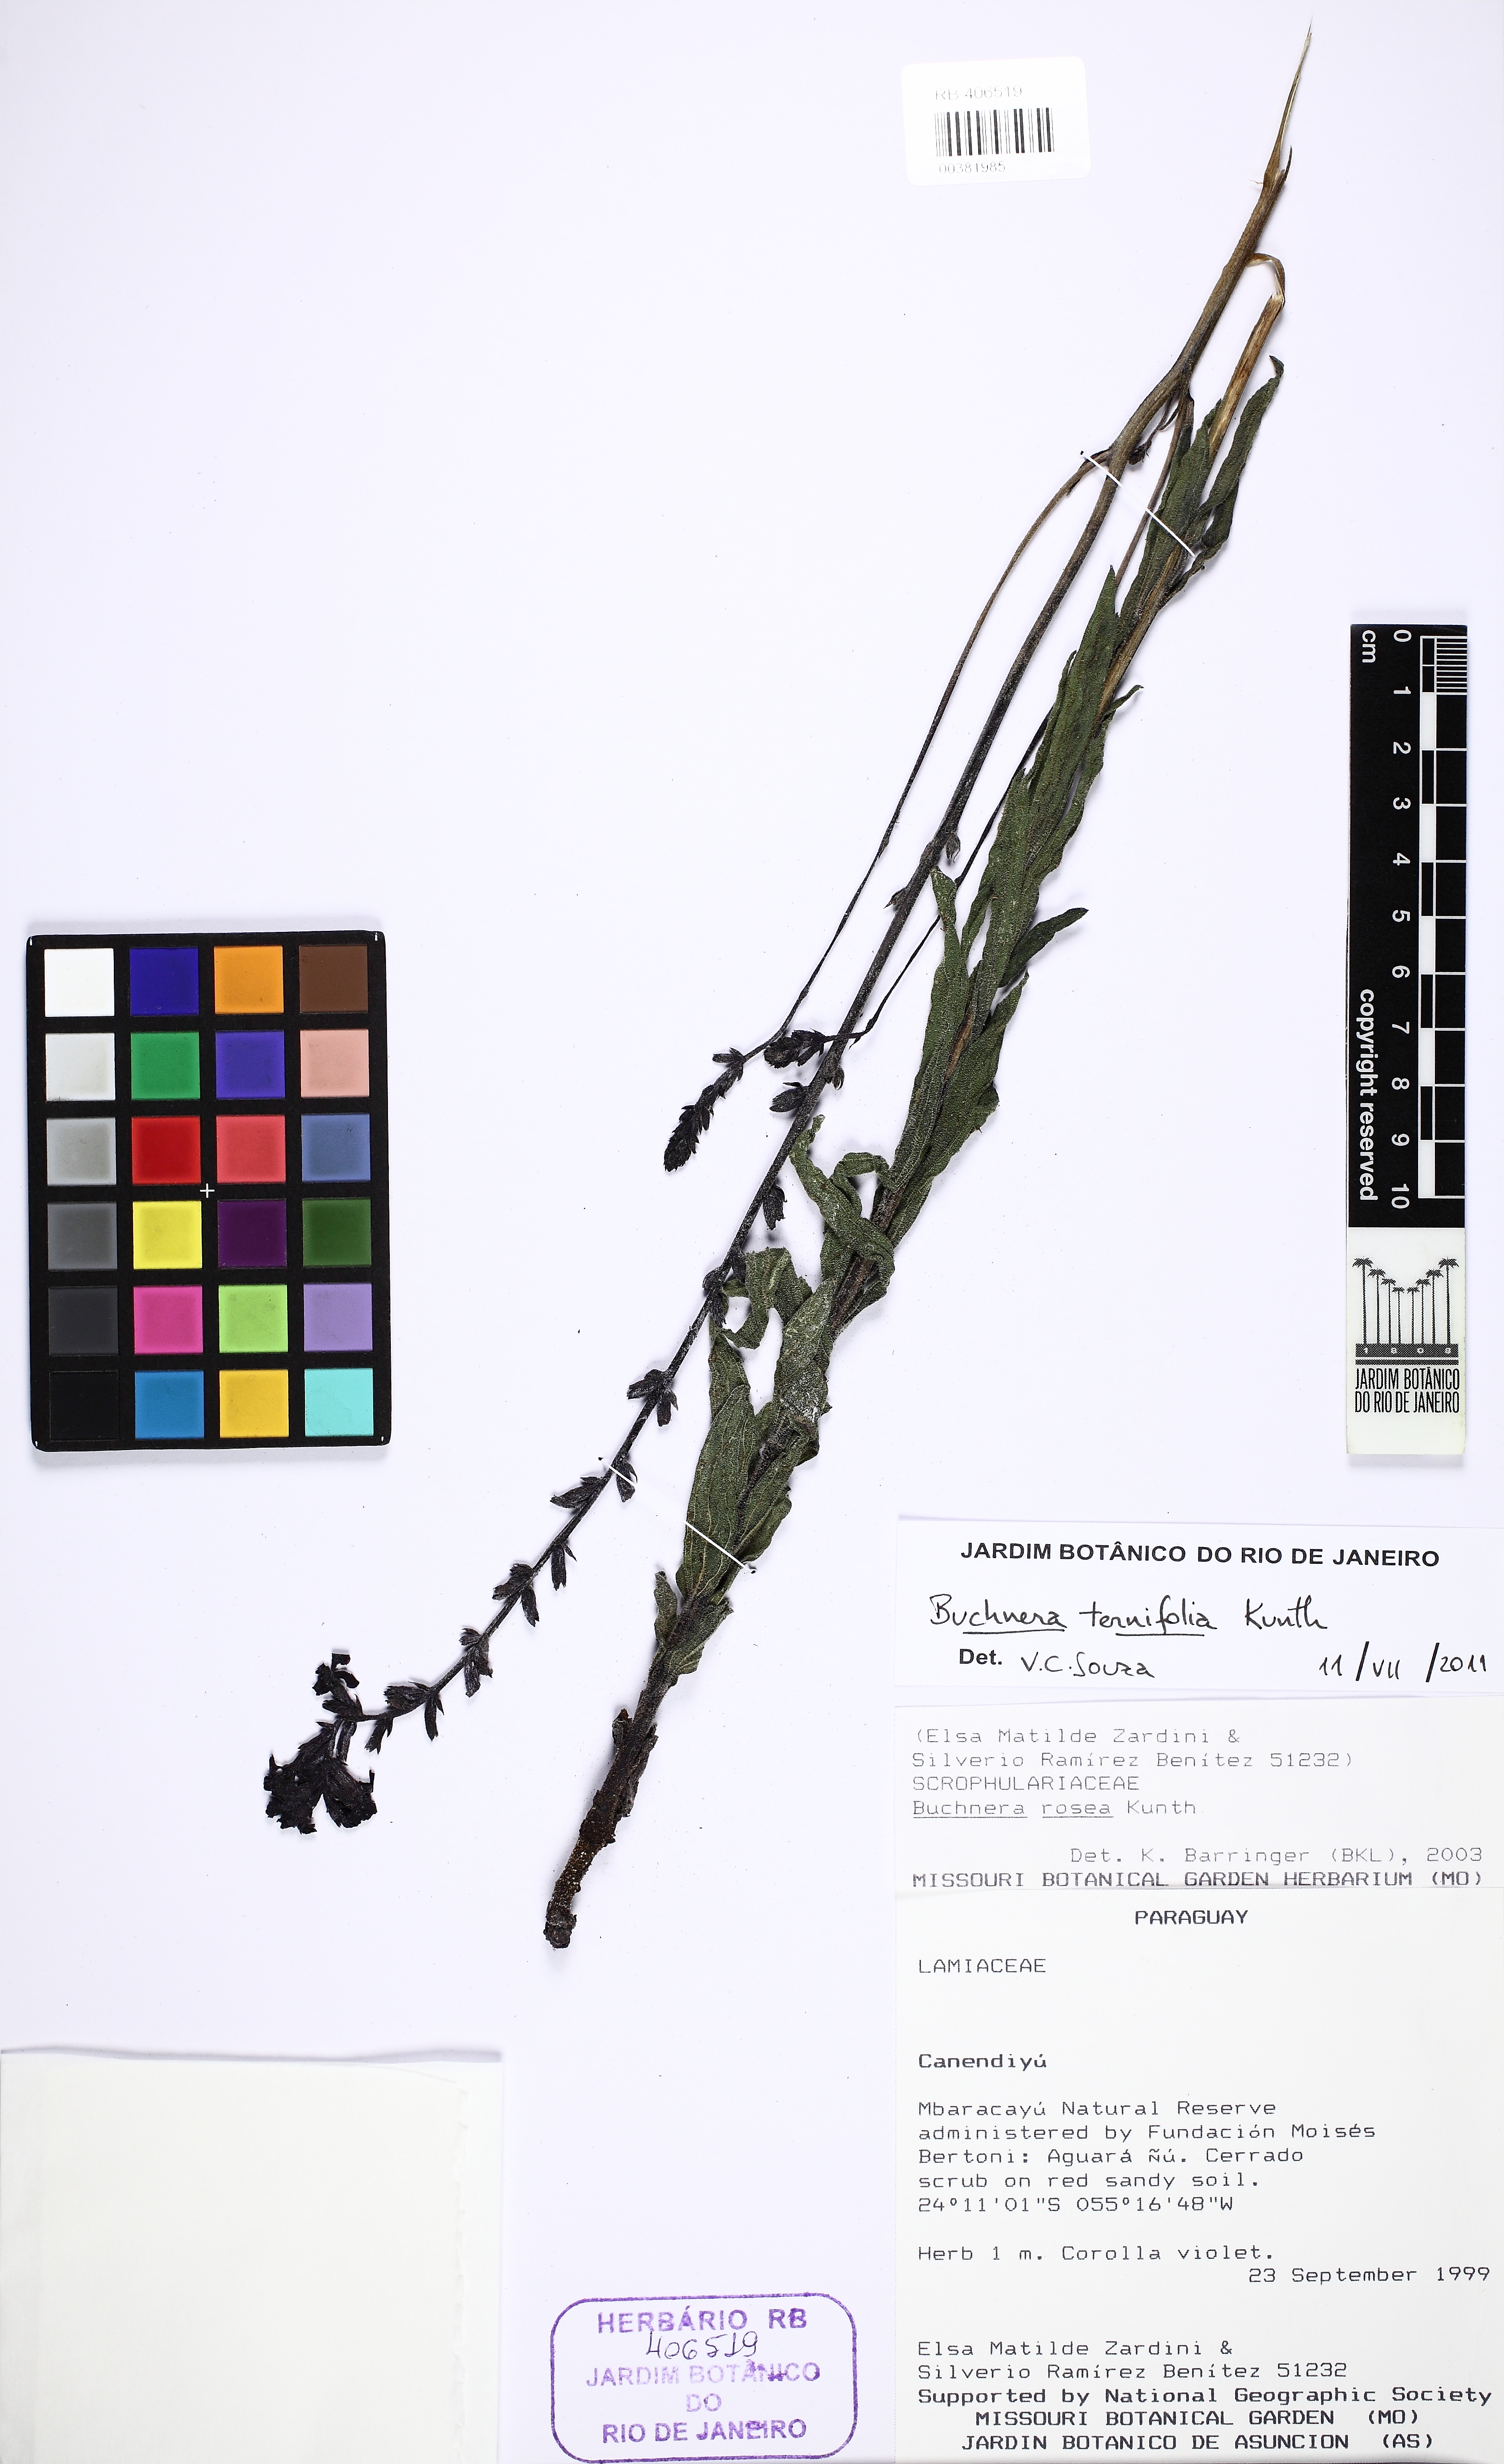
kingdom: Plantae
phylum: Tracheophyta
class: Magnoliopsida
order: Lamiales
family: Orobanchaceae
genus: Buchnera
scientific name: Buchnera ternifolia
